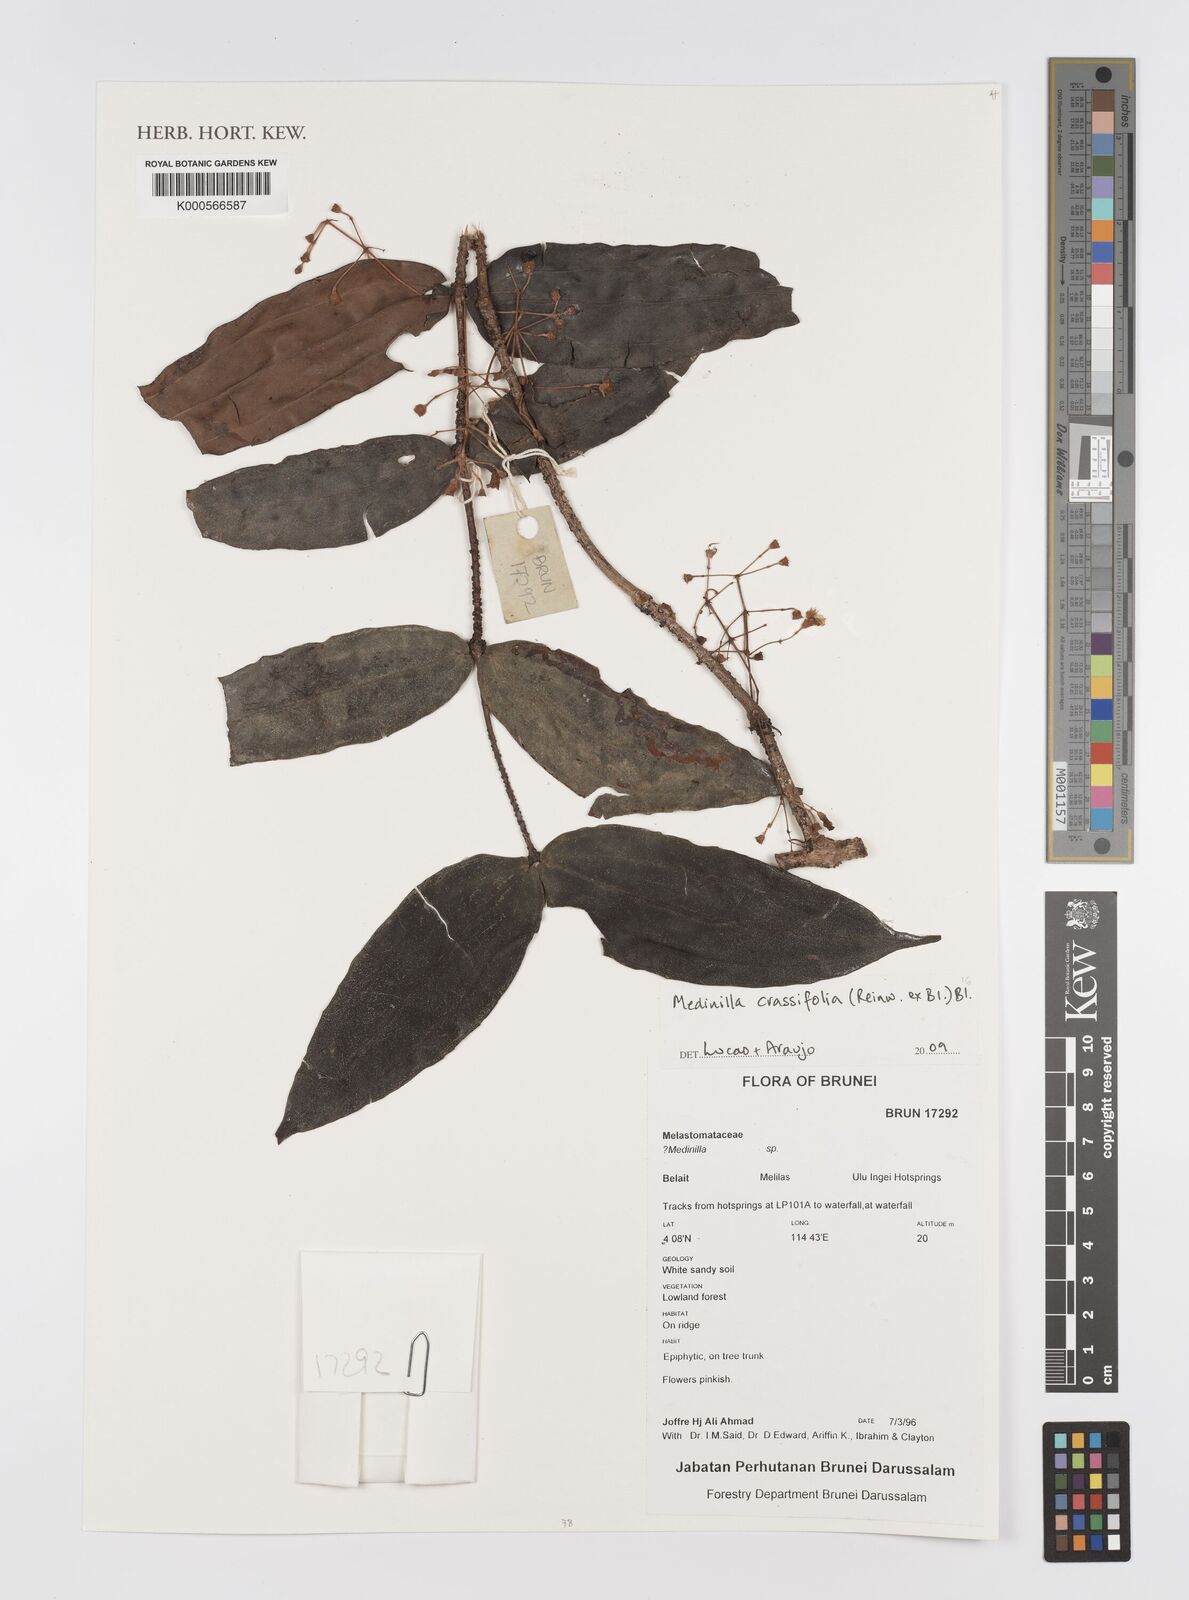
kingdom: Plantae
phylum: Tracheophyta
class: Magnoliopsida
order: Myrtales
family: Melastomataceae
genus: Medinilla
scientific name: Medinilla crassifolia
